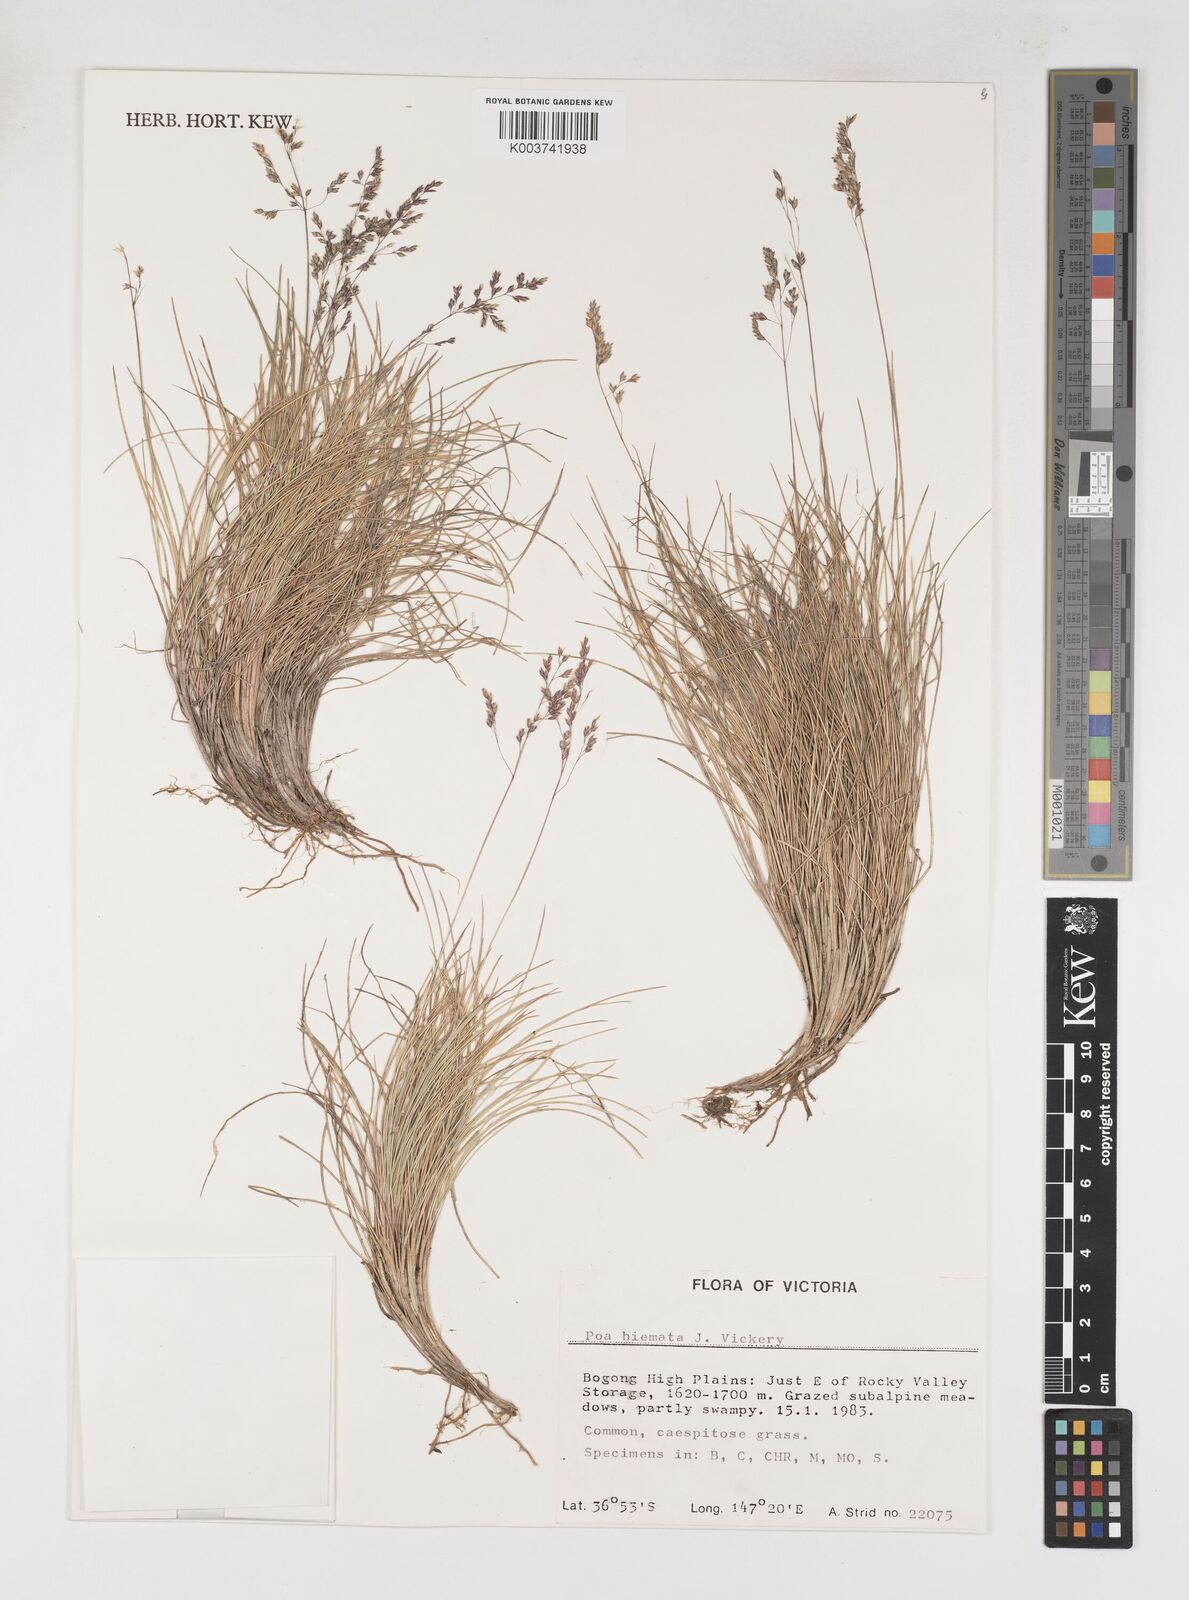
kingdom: Plantae
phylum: Tracheophyta
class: Liliopsida
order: Poales
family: Poaceae
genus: Poa
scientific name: Poa hiemata
